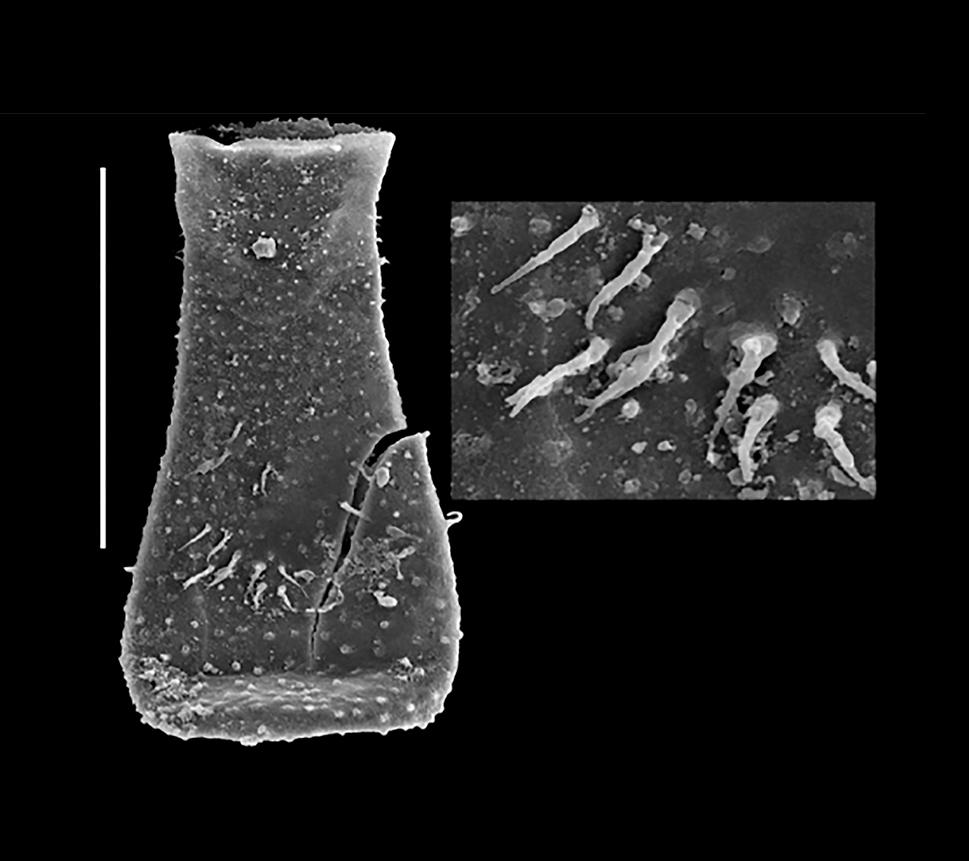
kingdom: Protozoa
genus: Belonechitina
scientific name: Belonechitina
